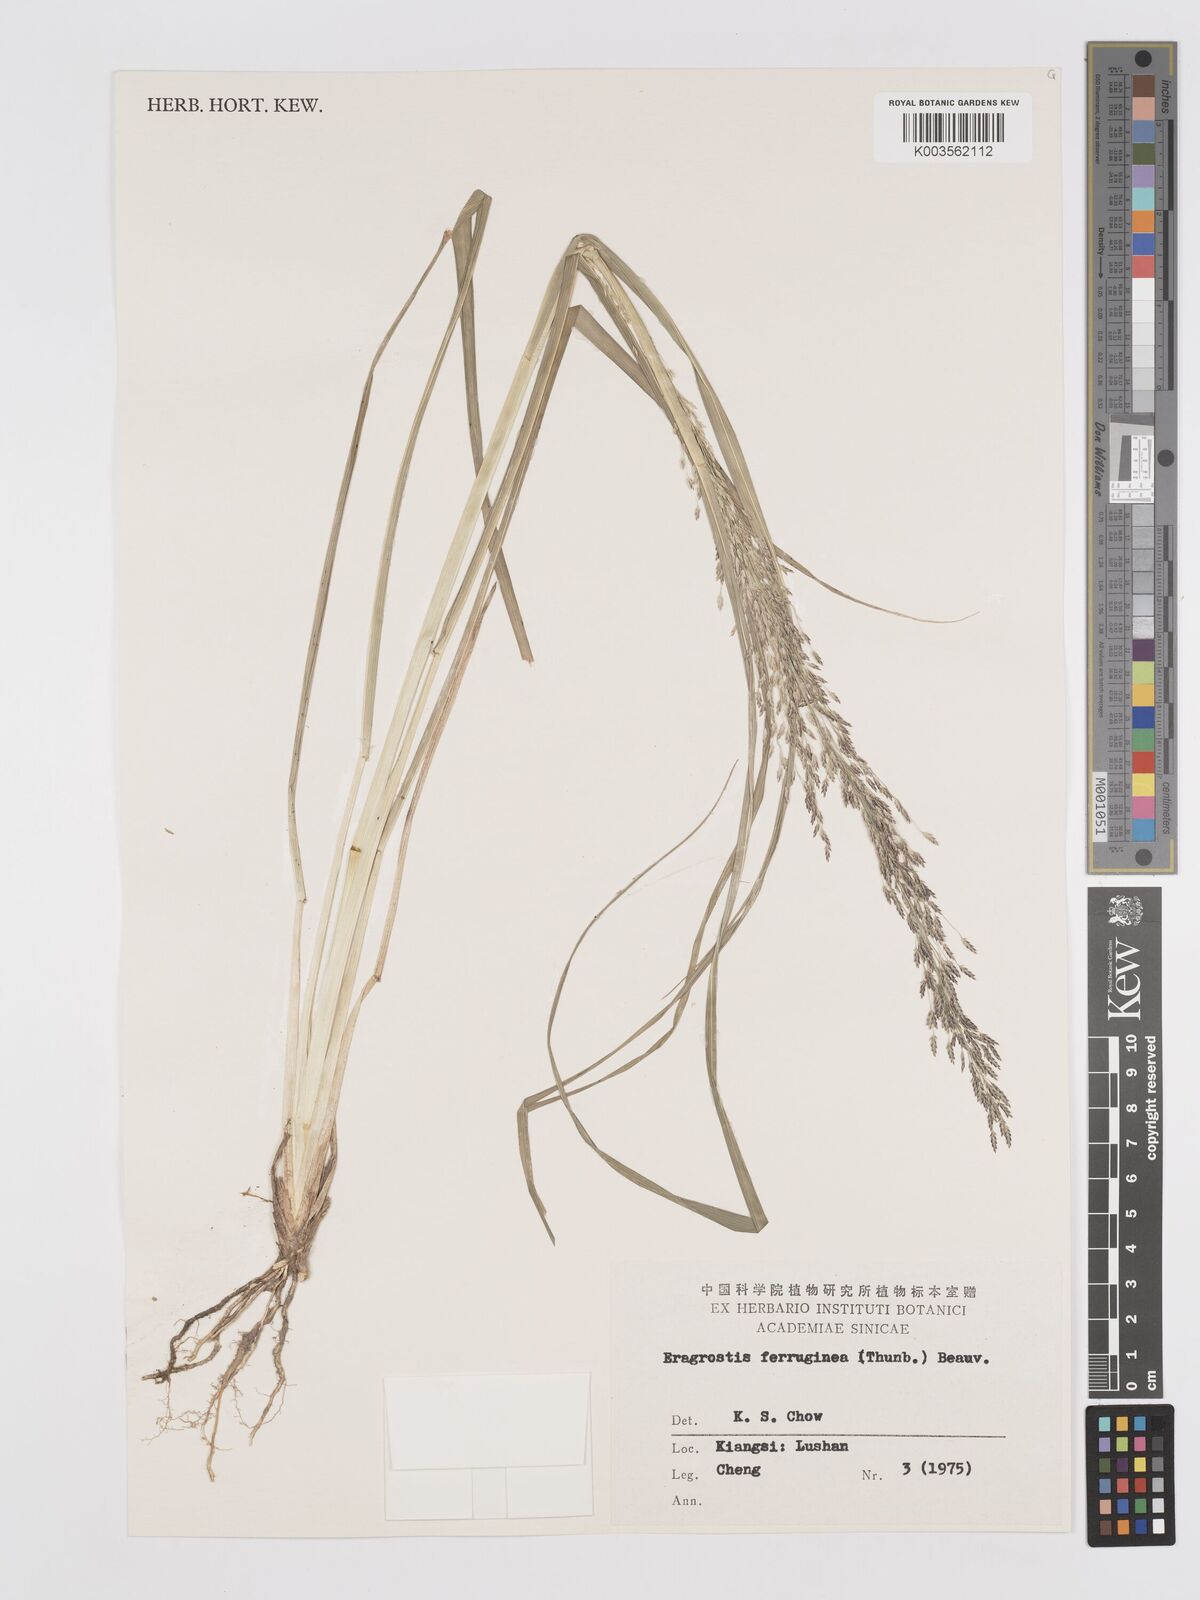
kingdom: Plantae
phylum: Tracheophyta
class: Liliopsida
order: Poales
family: Poaceae
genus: Eragrostis
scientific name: Eragrostis ferruginea
